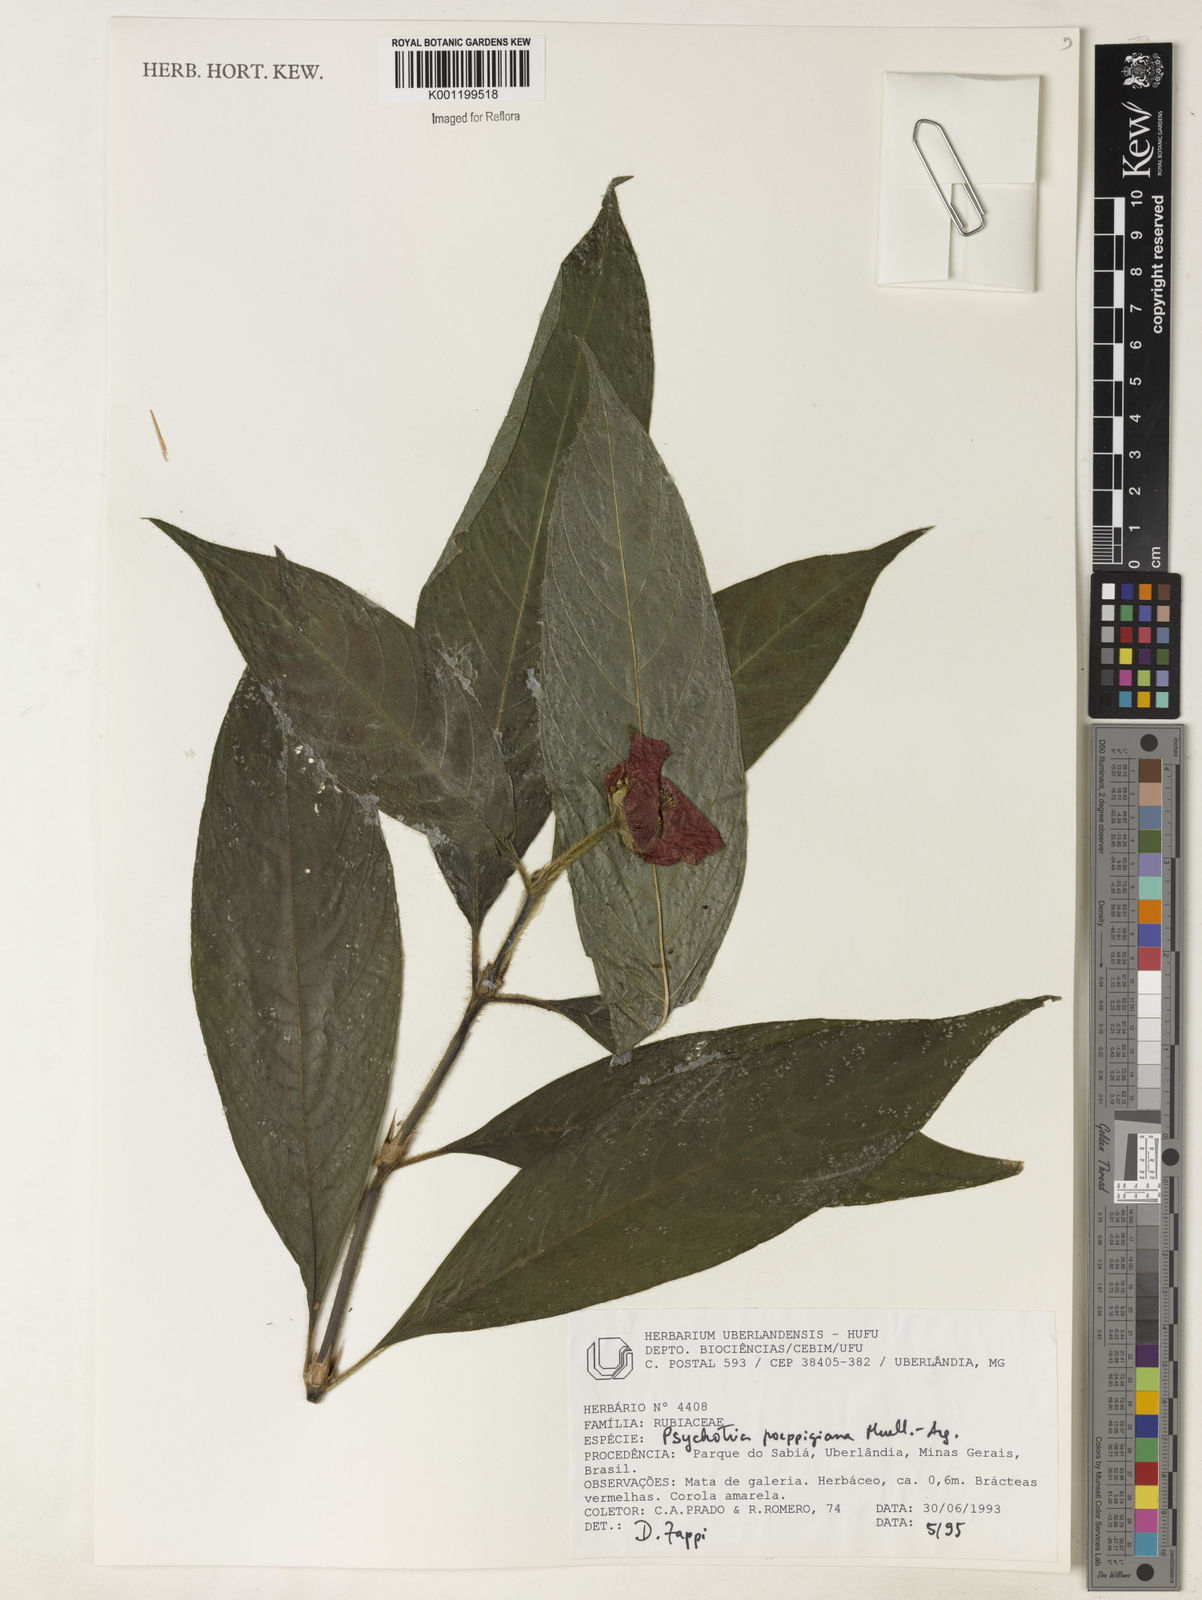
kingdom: Plantae
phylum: Tracheophyta
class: Magnoliopsida
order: Gentianales
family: Rubiaceae
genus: Psychotria
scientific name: Psychotria
